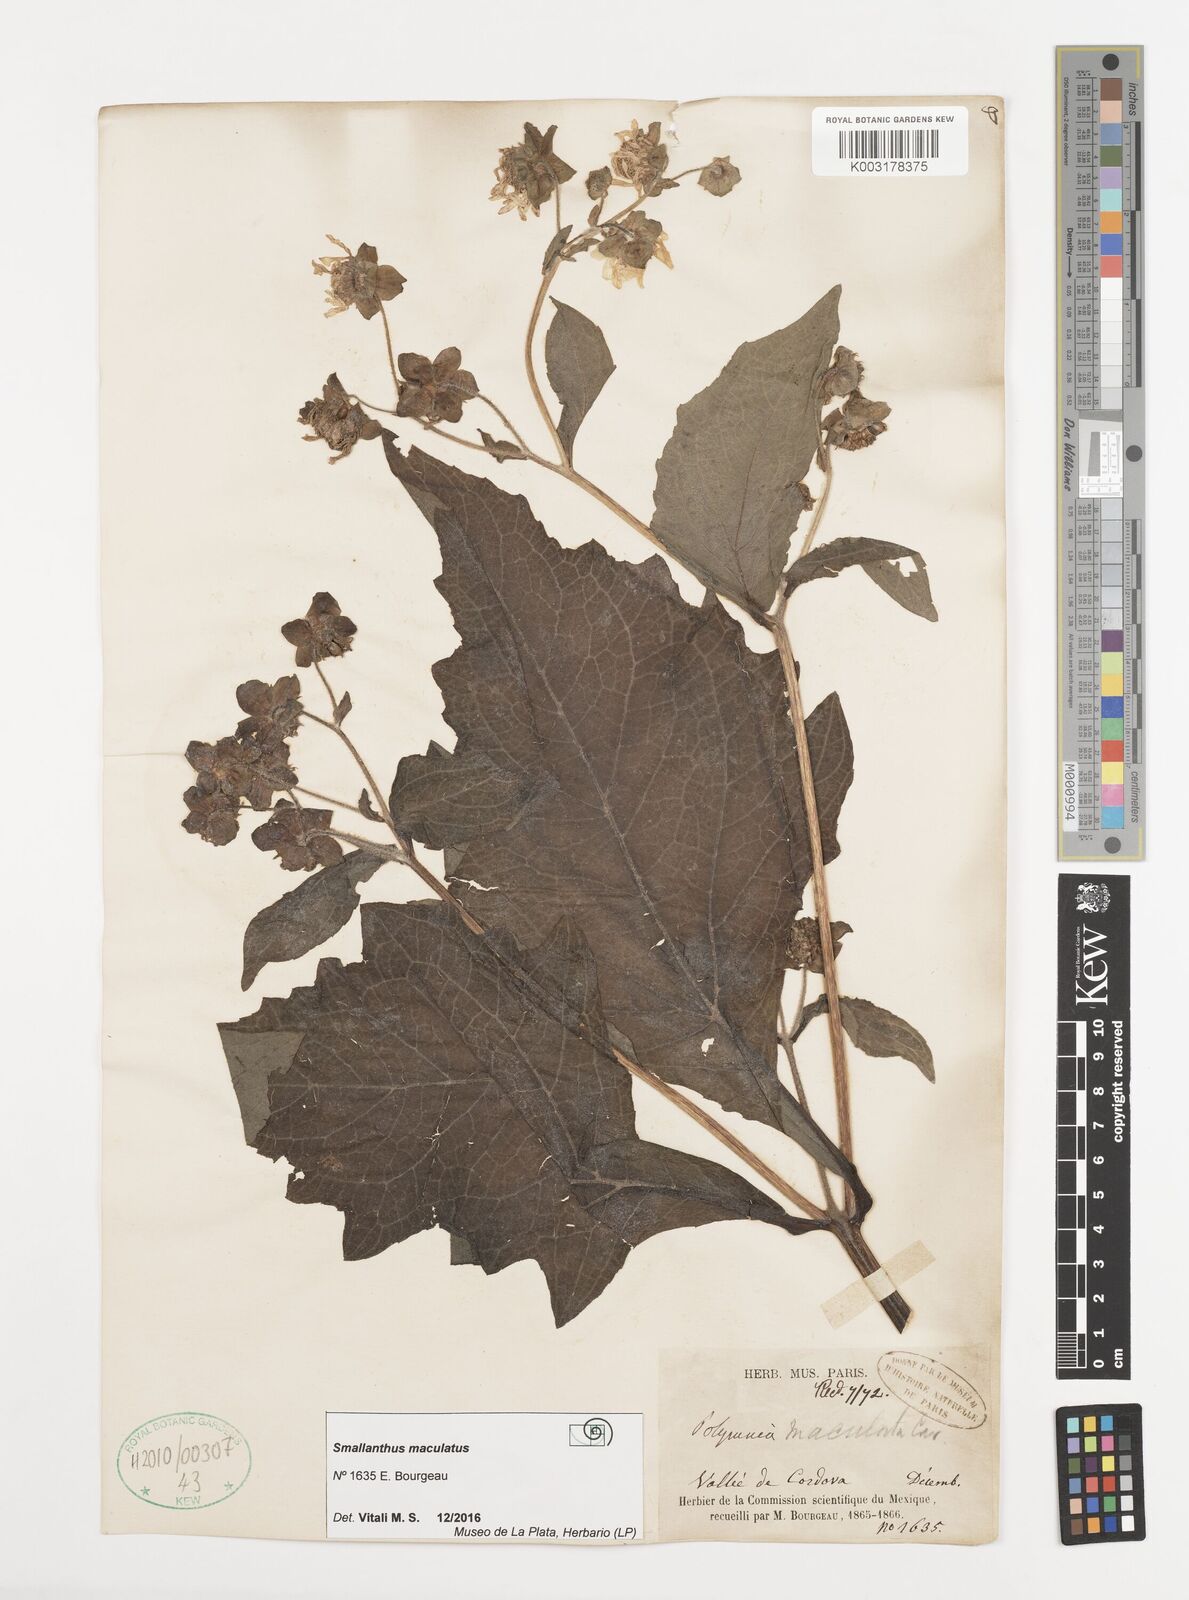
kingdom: Plantae
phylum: Tracheophyta
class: Magnoliopsida
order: Asterales
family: Asteraceae
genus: Smallanthus
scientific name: Smallanthus maculatus
